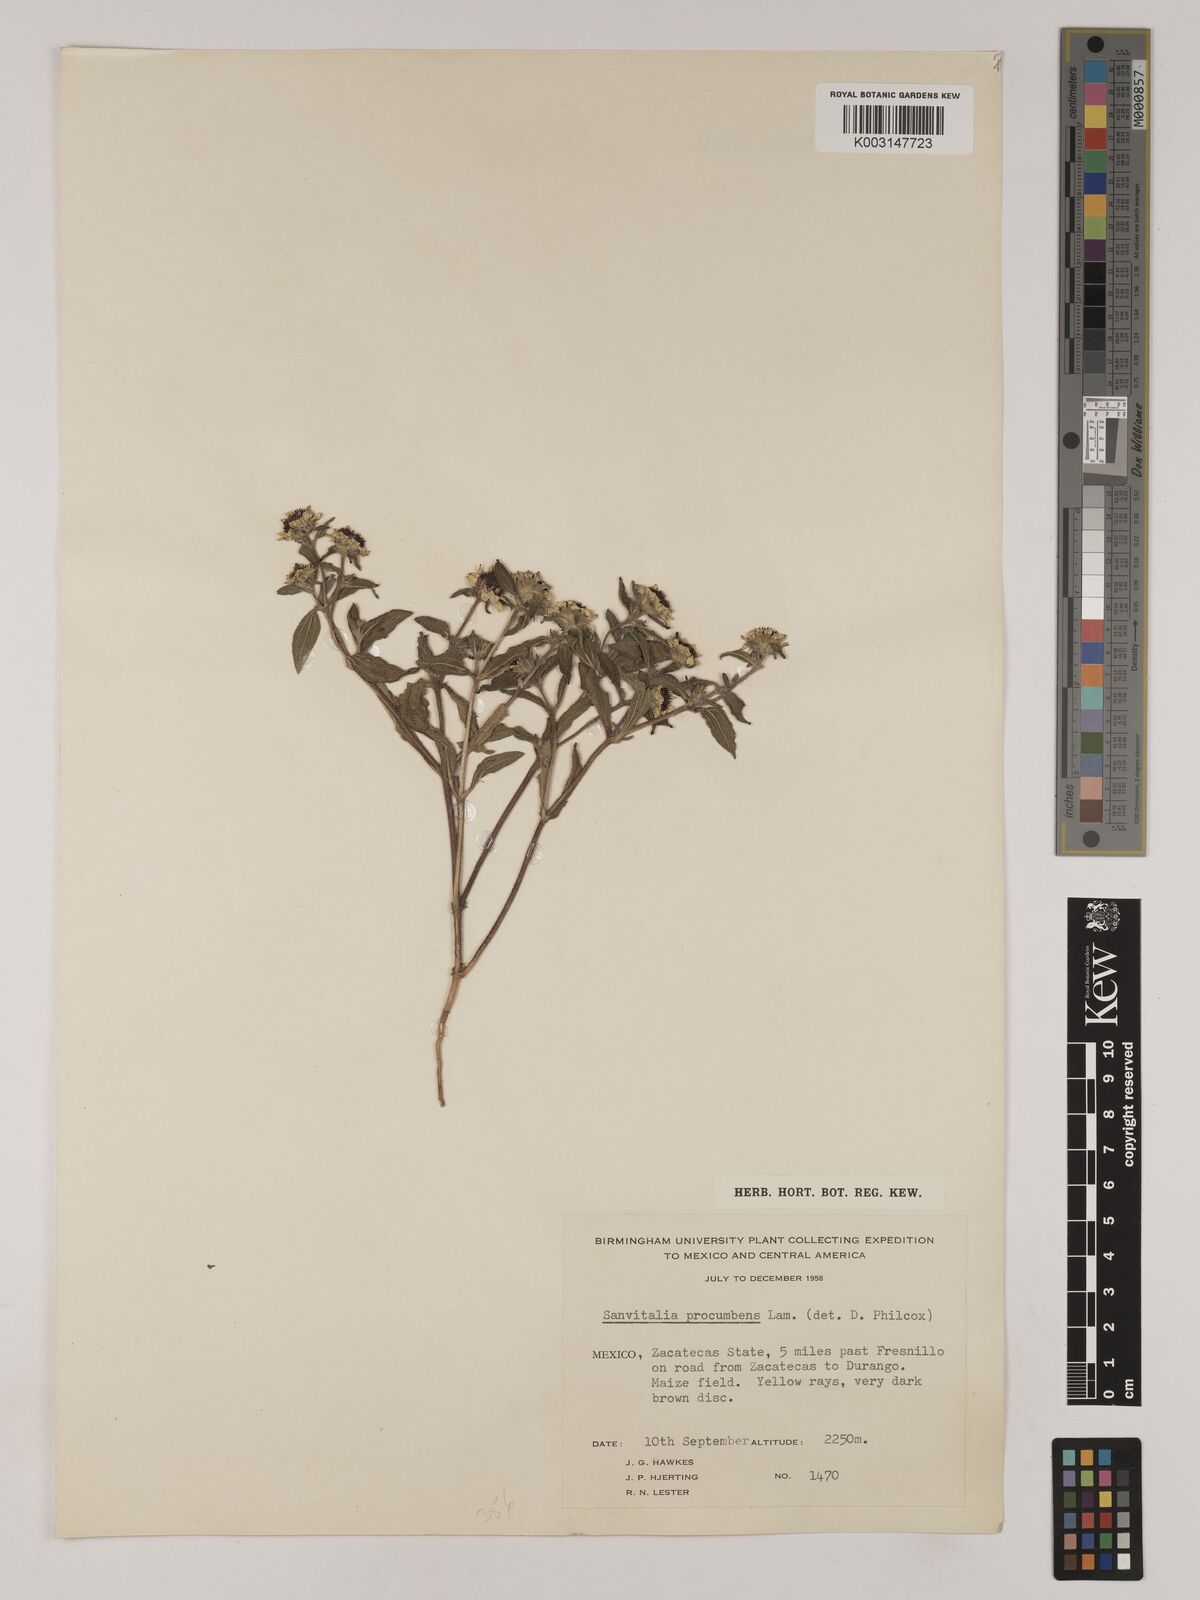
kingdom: Plantae
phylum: Tracheophyta
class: Magnoliopsida
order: Asterales
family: Asteraceae
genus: Sanvitalia
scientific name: Sanvitalia procumbens
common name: Mexican creeping zinnia
